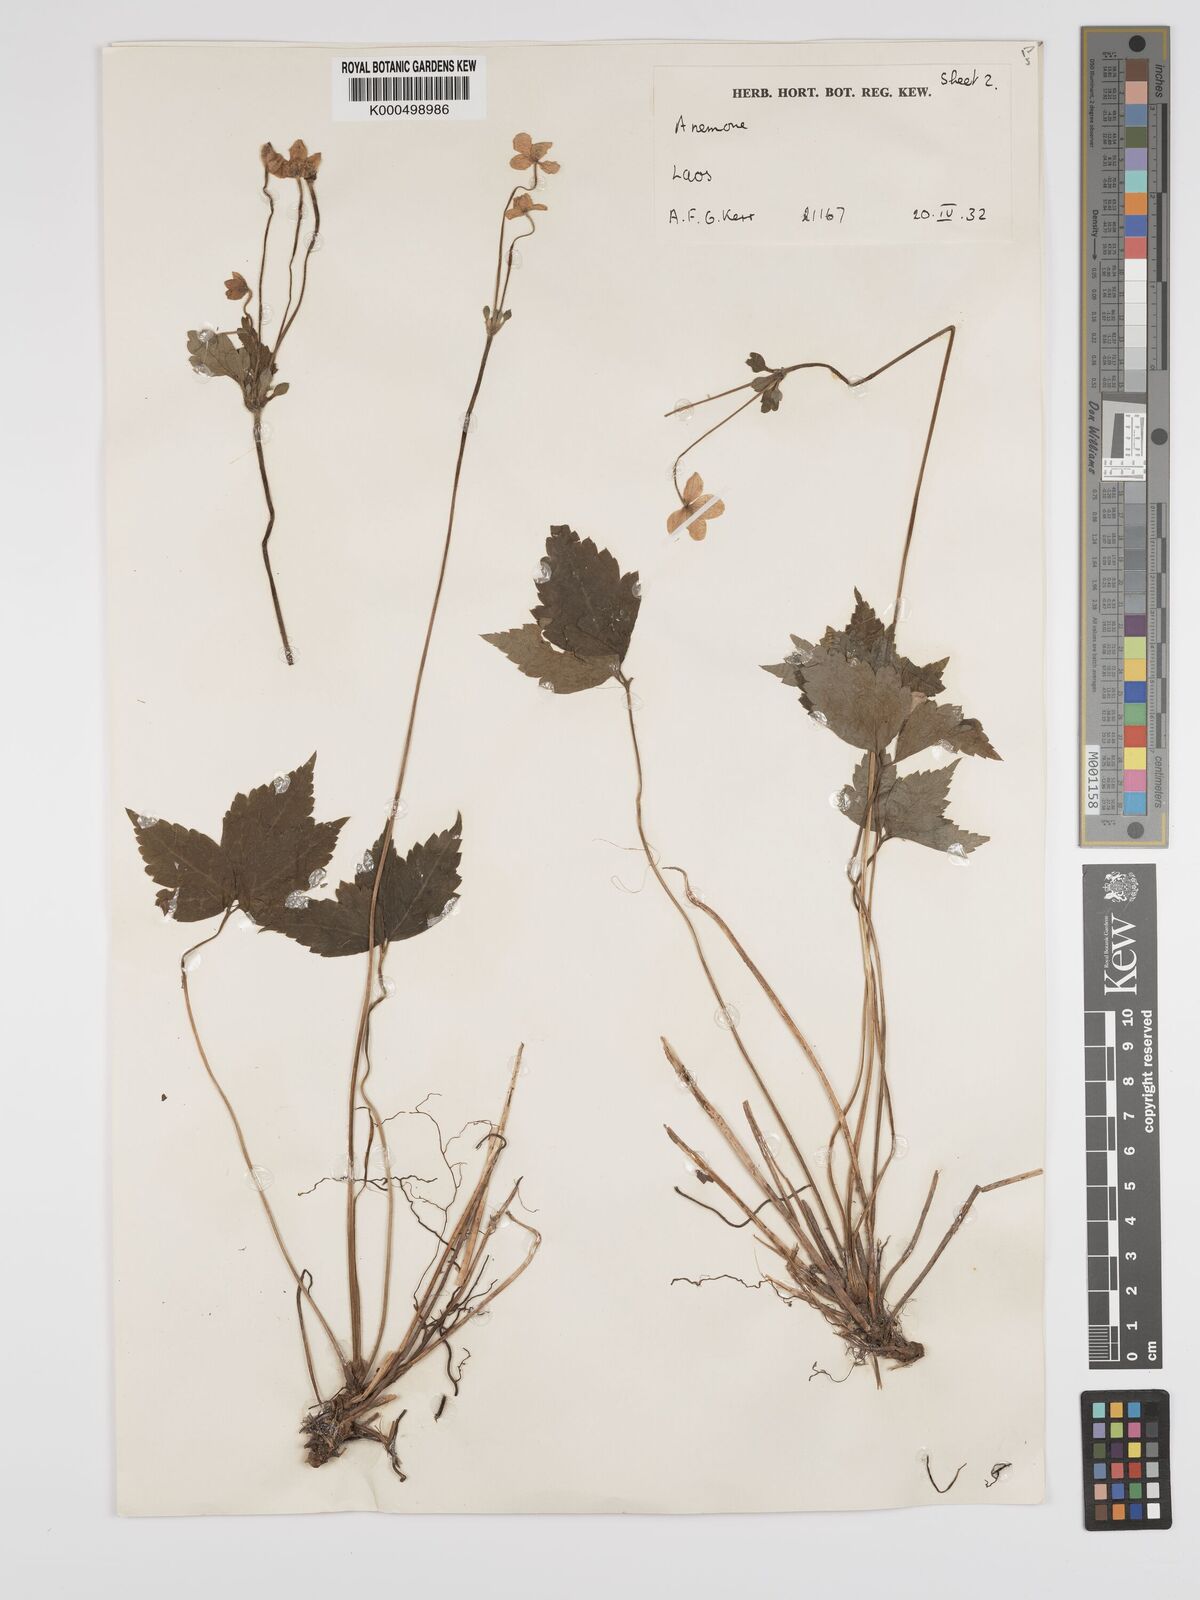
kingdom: Plantae
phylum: Tracheophyta
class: Magnoliopsida
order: Ranunculales
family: Ranunculaceae
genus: Anemone
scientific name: Anemone
